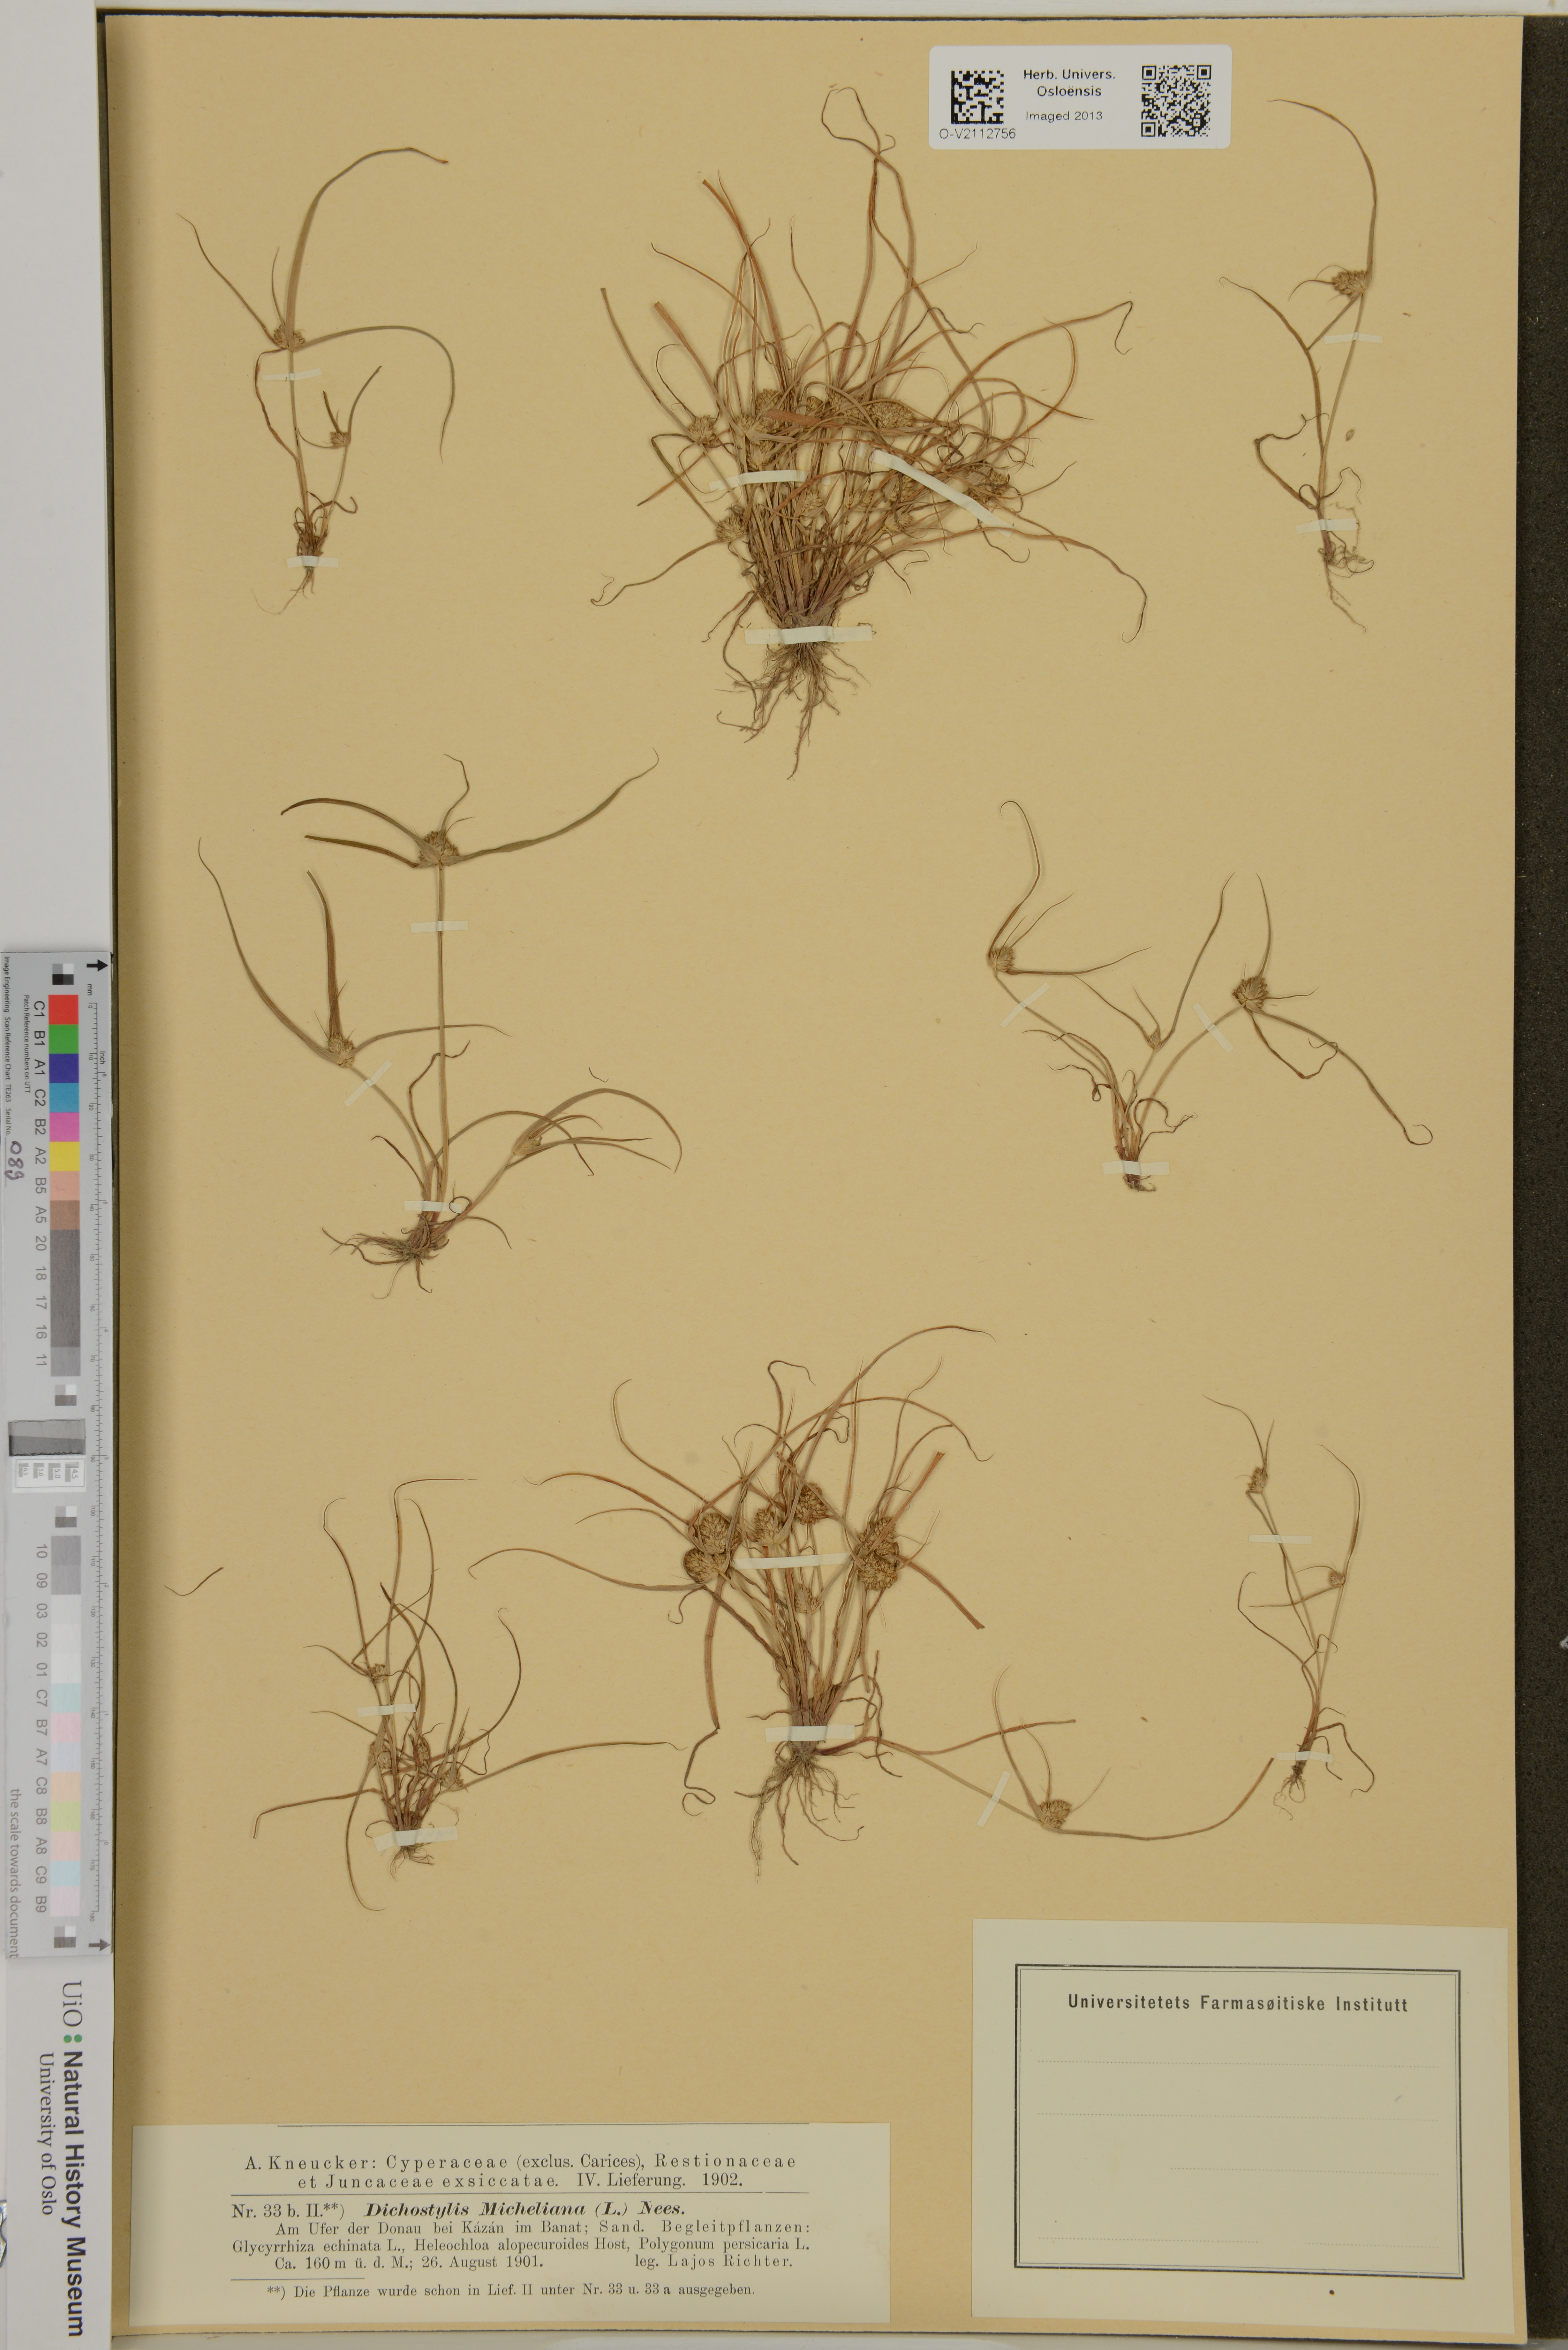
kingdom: Plantae
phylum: Tracheophyta
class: Liliopsida
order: Poales
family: Cyperaceae
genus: Dichostylis
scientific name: Dichostylis micheliana
